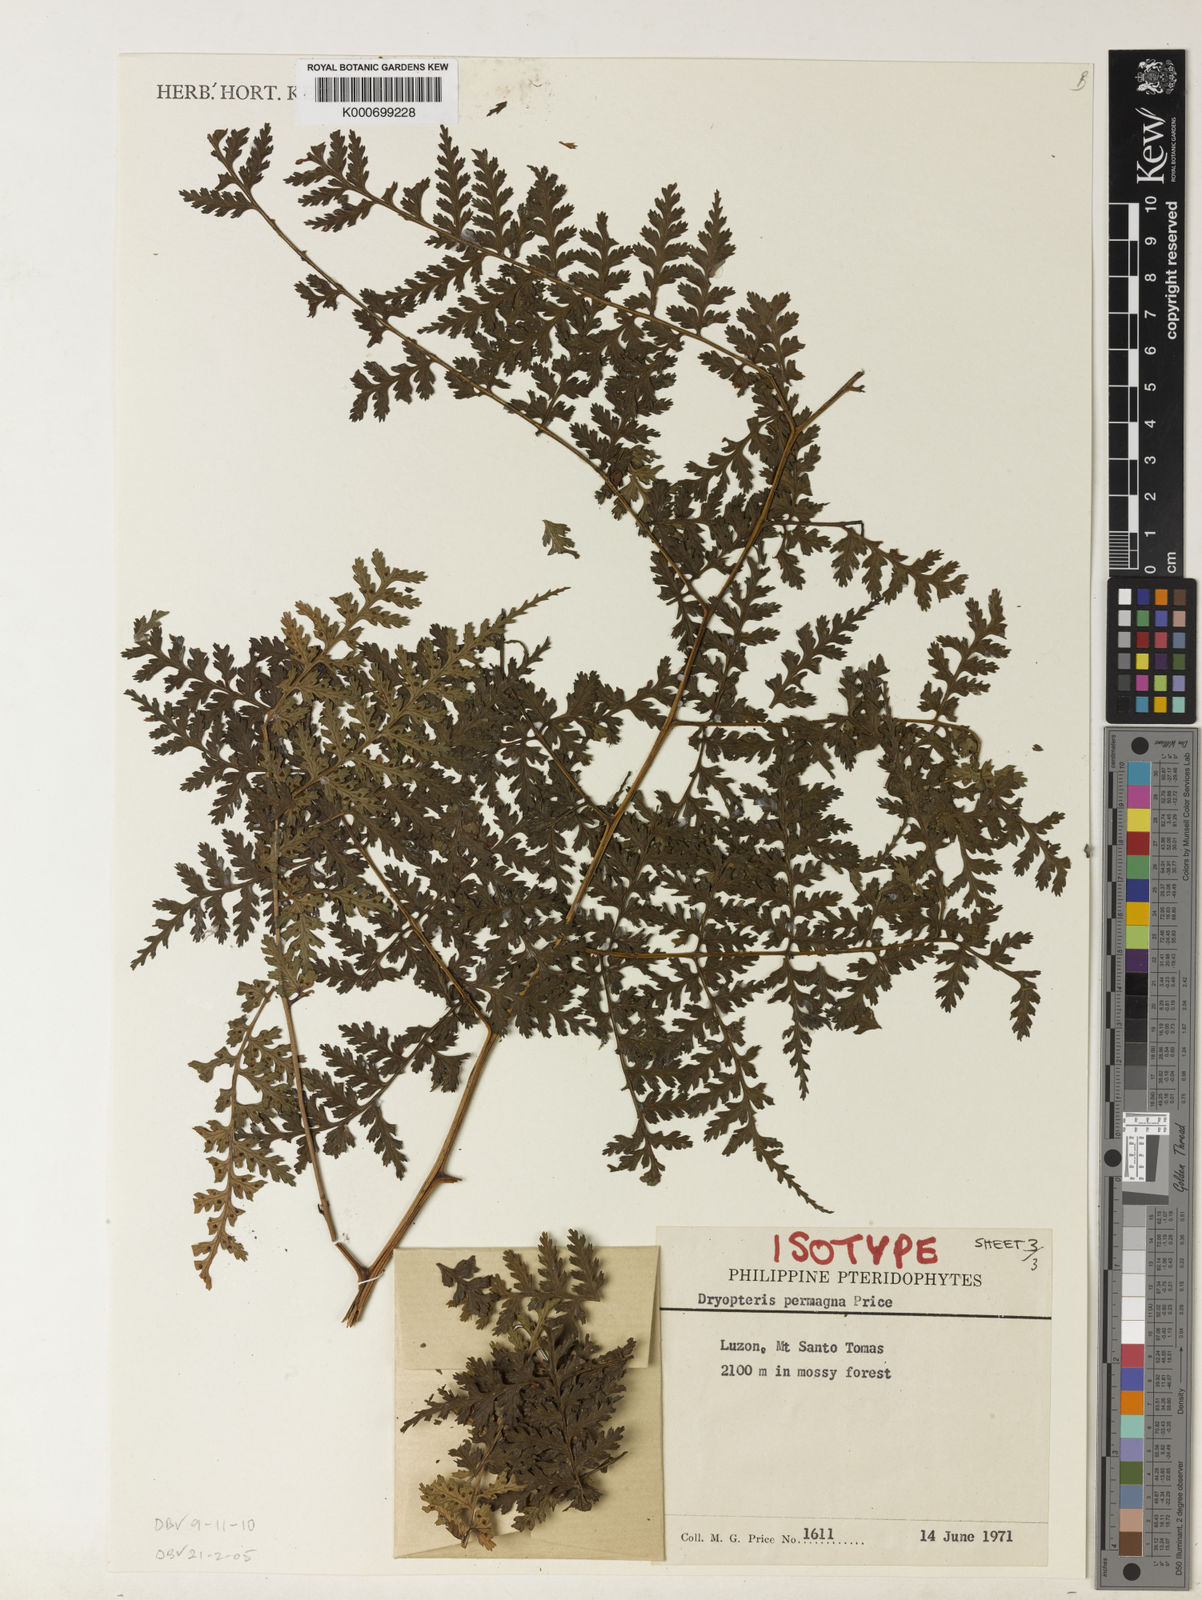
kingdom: Plantae
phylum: Tracheophyta
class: Polypodiopsida
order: Polypodiales
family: Dryopteridaceae
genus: Dryopteris
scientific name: Dryopteris permagna
